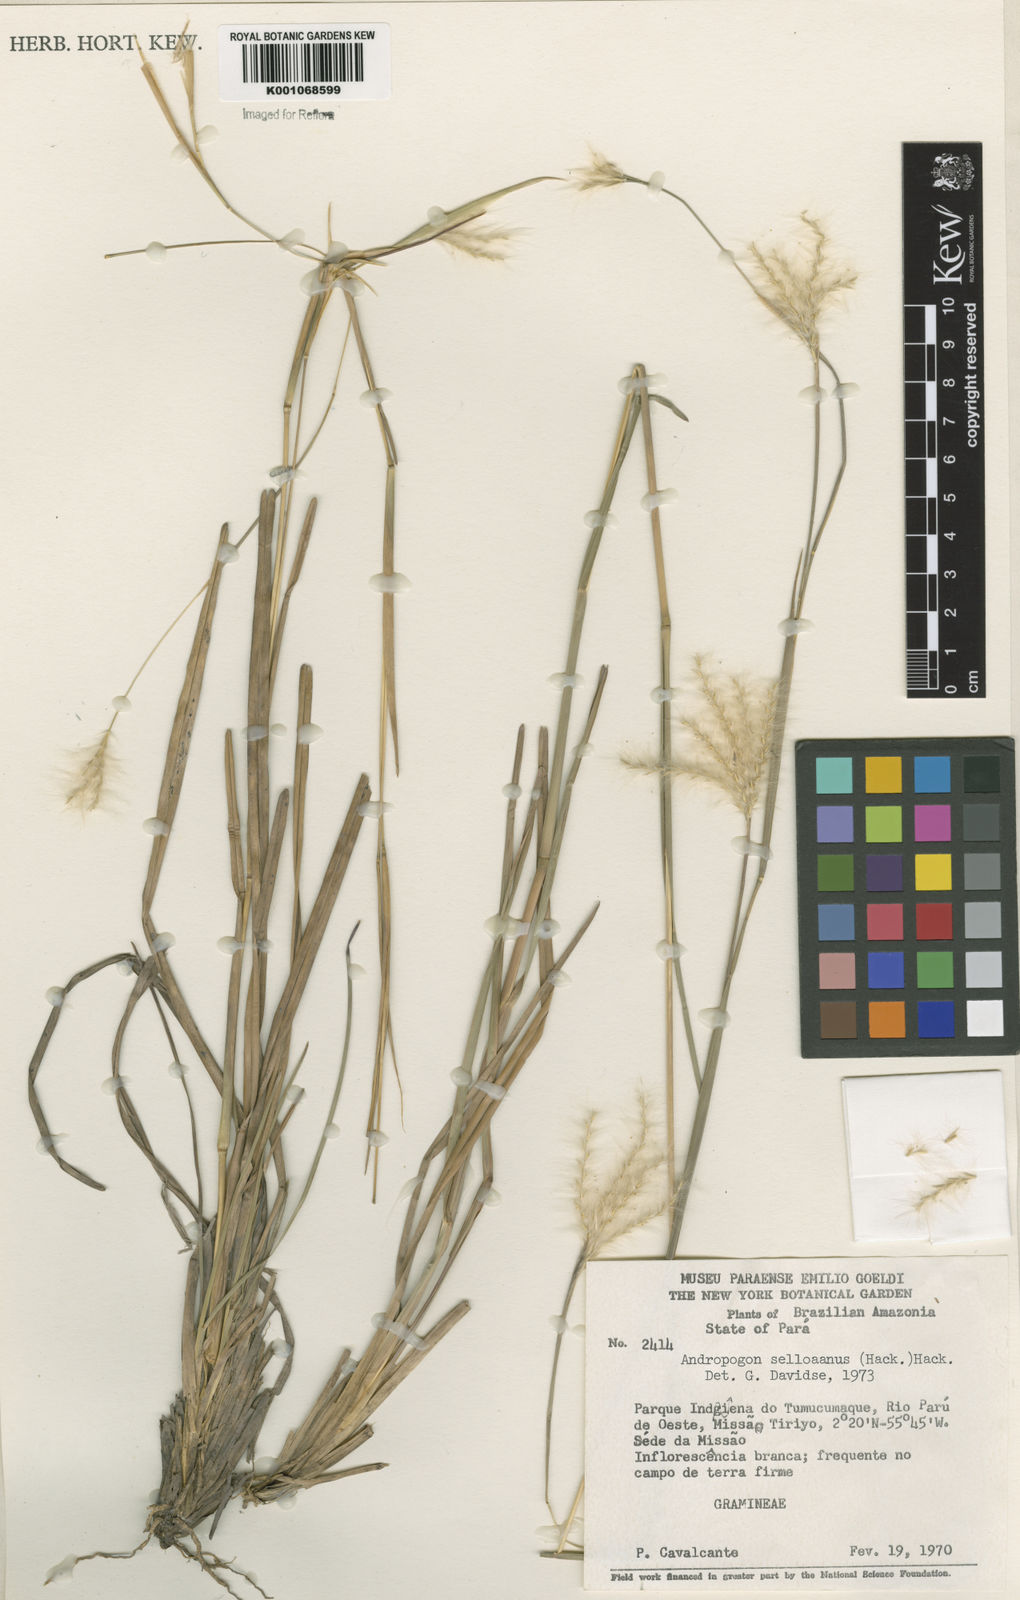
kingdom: Plantae
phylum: Tracheophyta
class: Liliopsida
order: Poales
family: Poaceae
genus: Andropogon
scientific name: Andropogon selloanus
